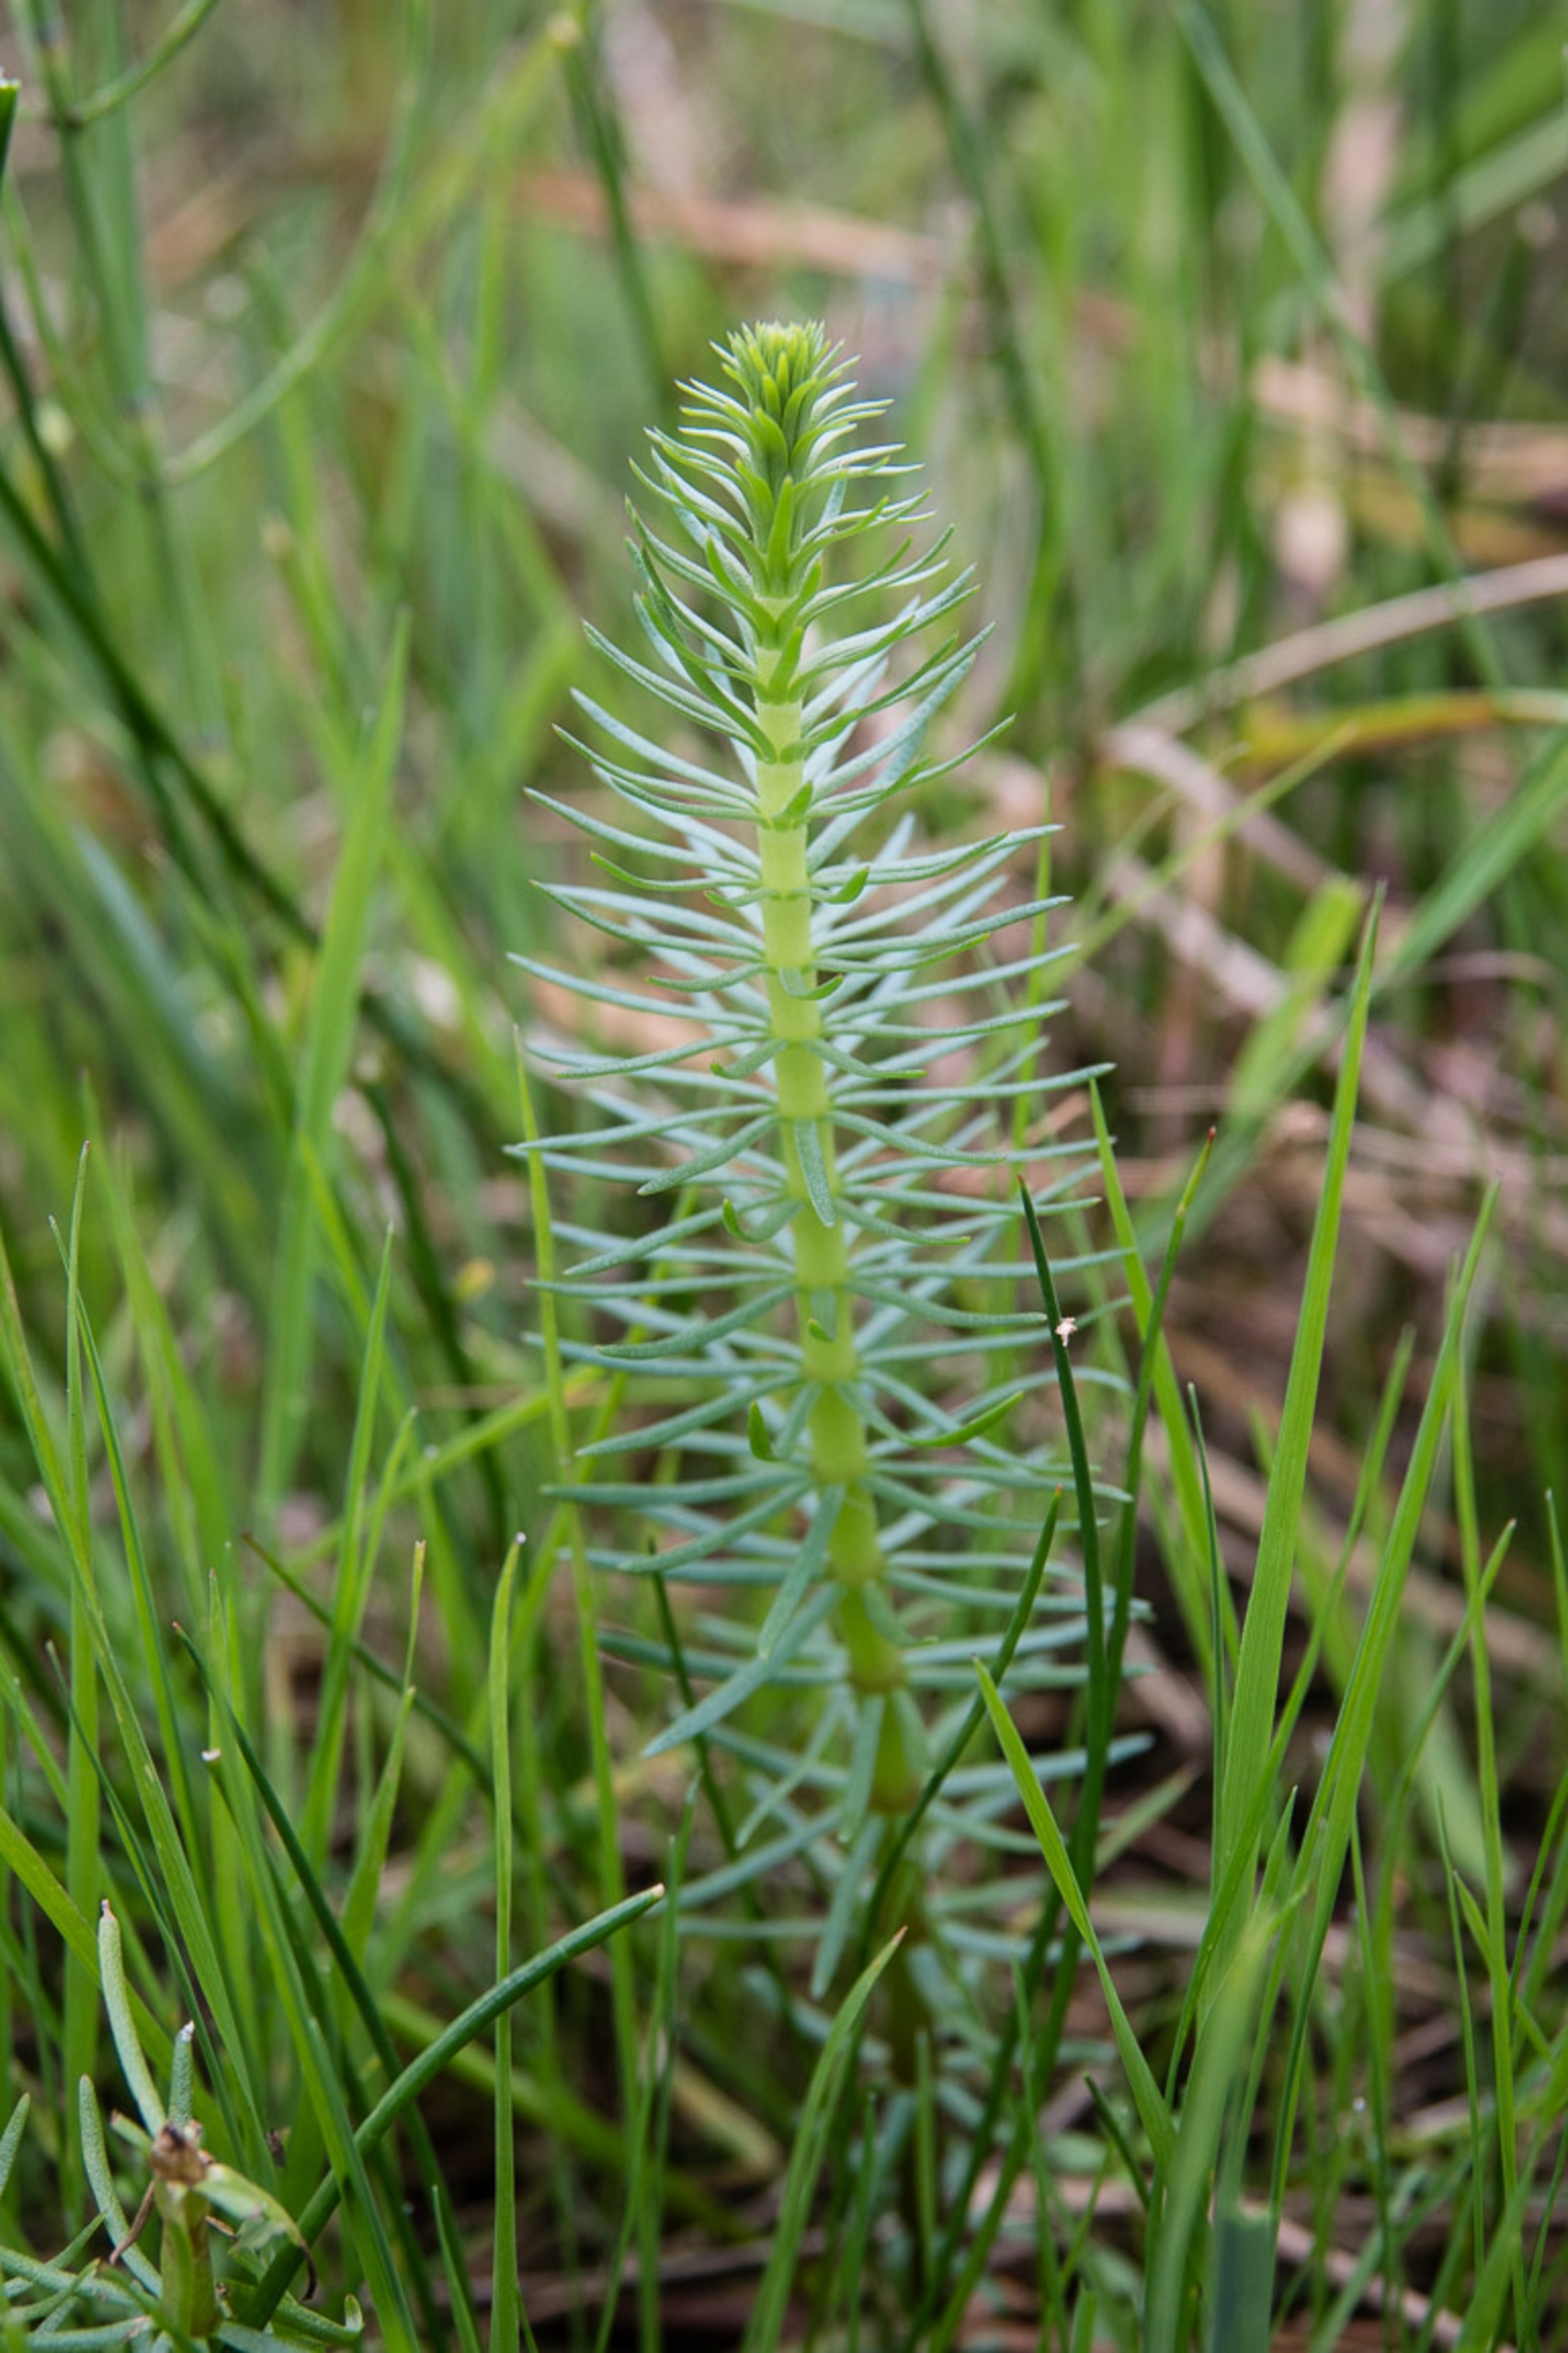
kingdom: Plantae
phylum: Tracheophyta
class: Magnoliopsida
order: Lamiales
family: Plantaginaceae
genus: Hippuris
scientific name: Hippuris vulgaris
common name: Vandspir
